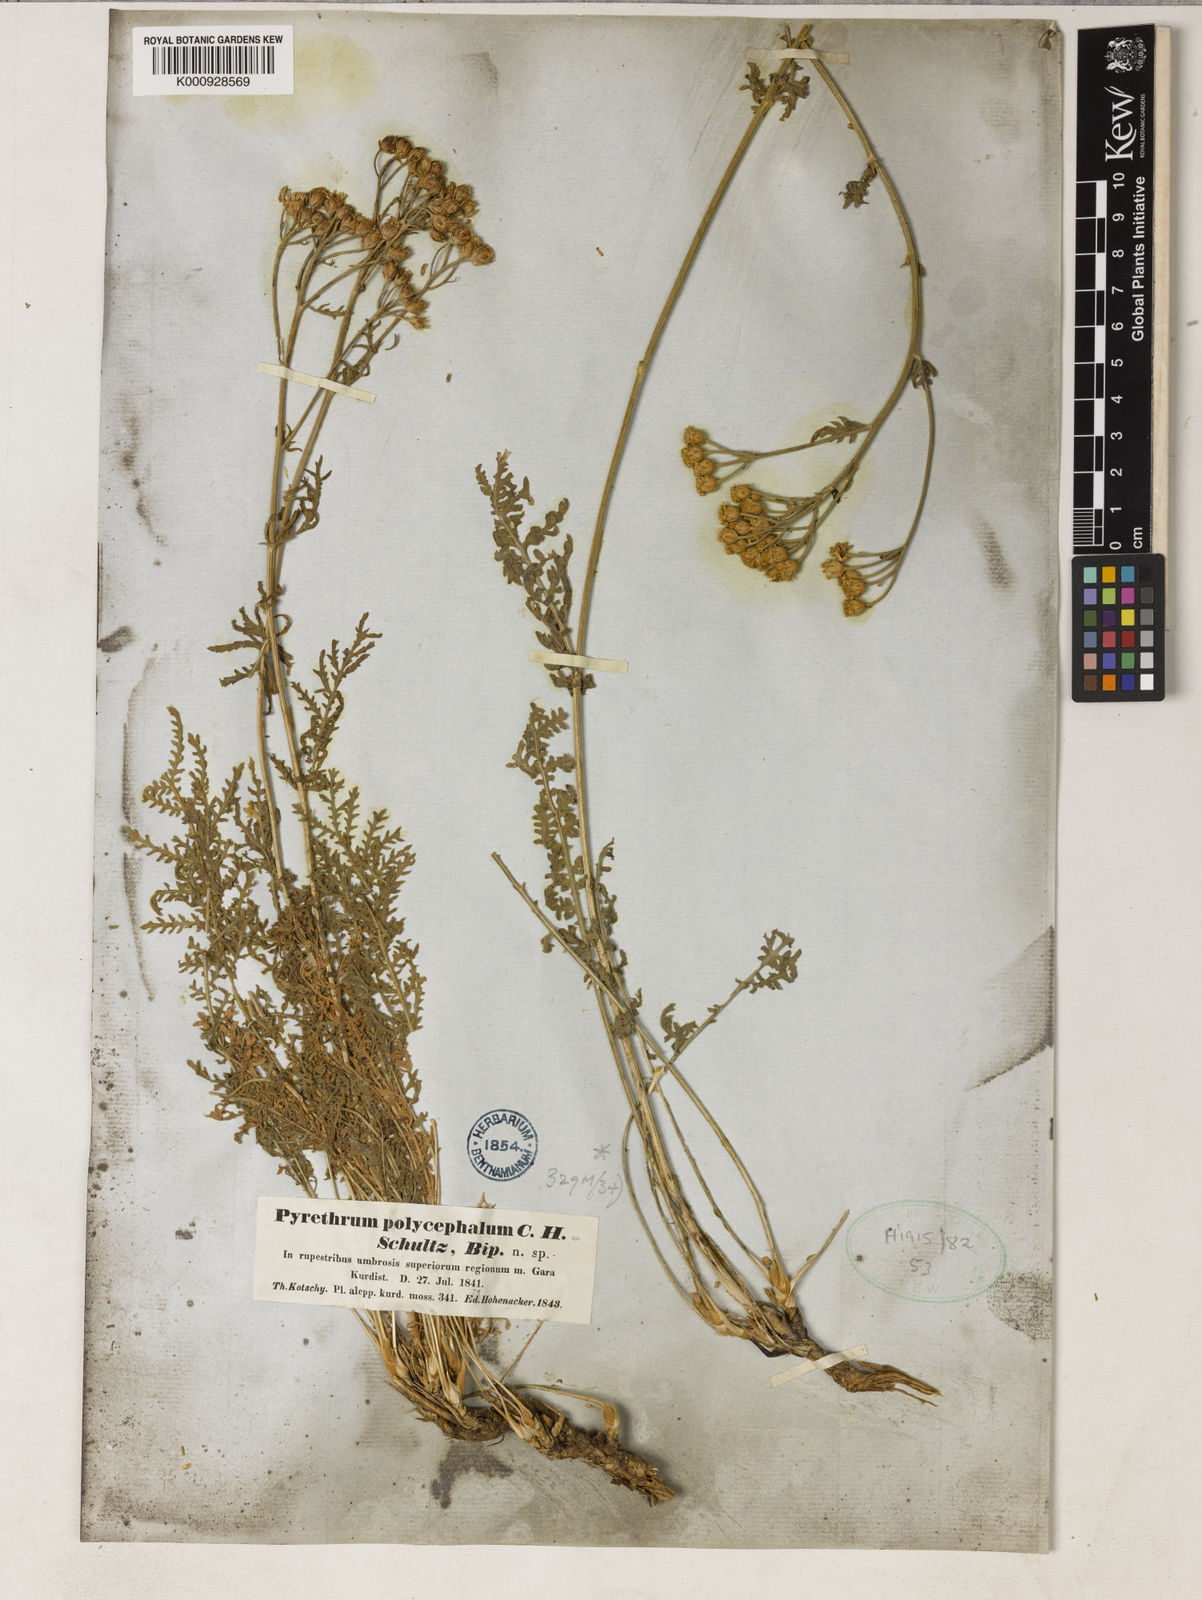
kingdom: Plantae
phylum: Tracheophyta
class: Magnoliopsida
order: Asterales
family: Asteraceae
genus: Tanacetum
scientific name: Tanacetum polycephalum
